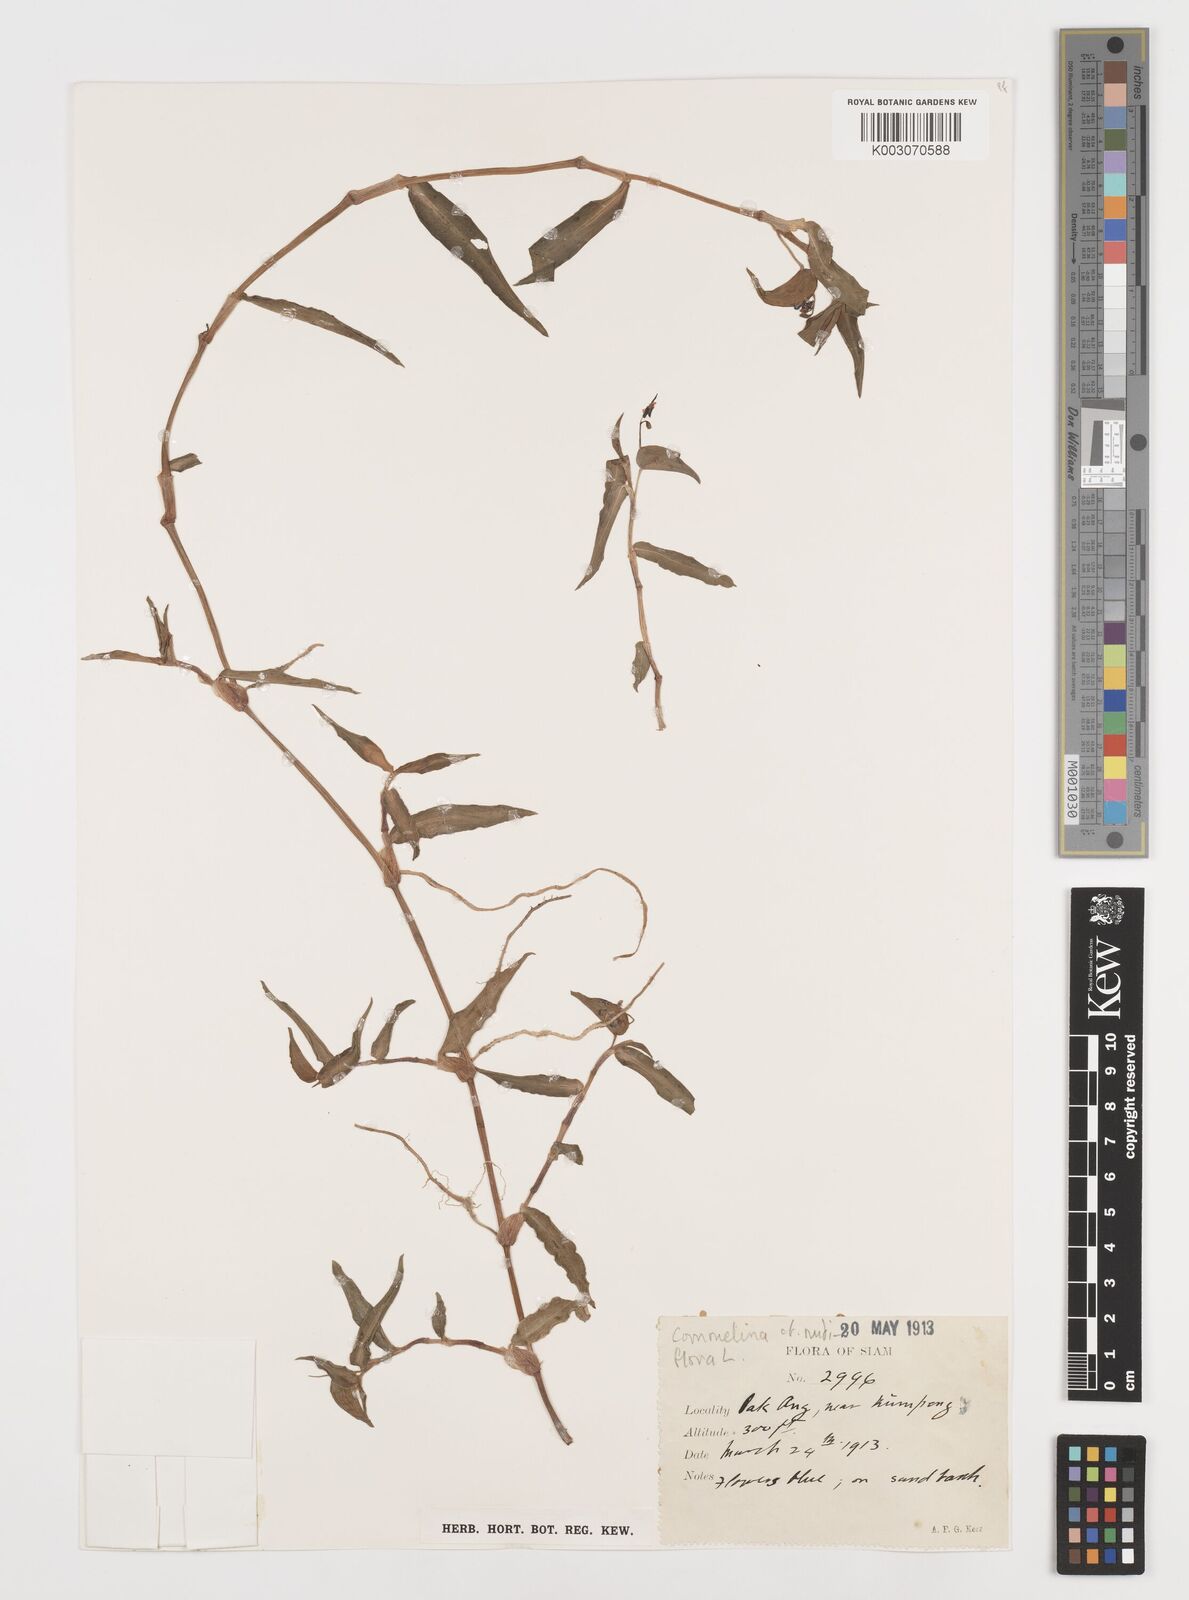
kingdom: Plantae
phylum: Tracheophyta
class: Liliopsida
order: Commelinales
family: Commelinaceae
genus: Commelina
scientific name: Commelina clavata
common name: Willow leaved dayflower
